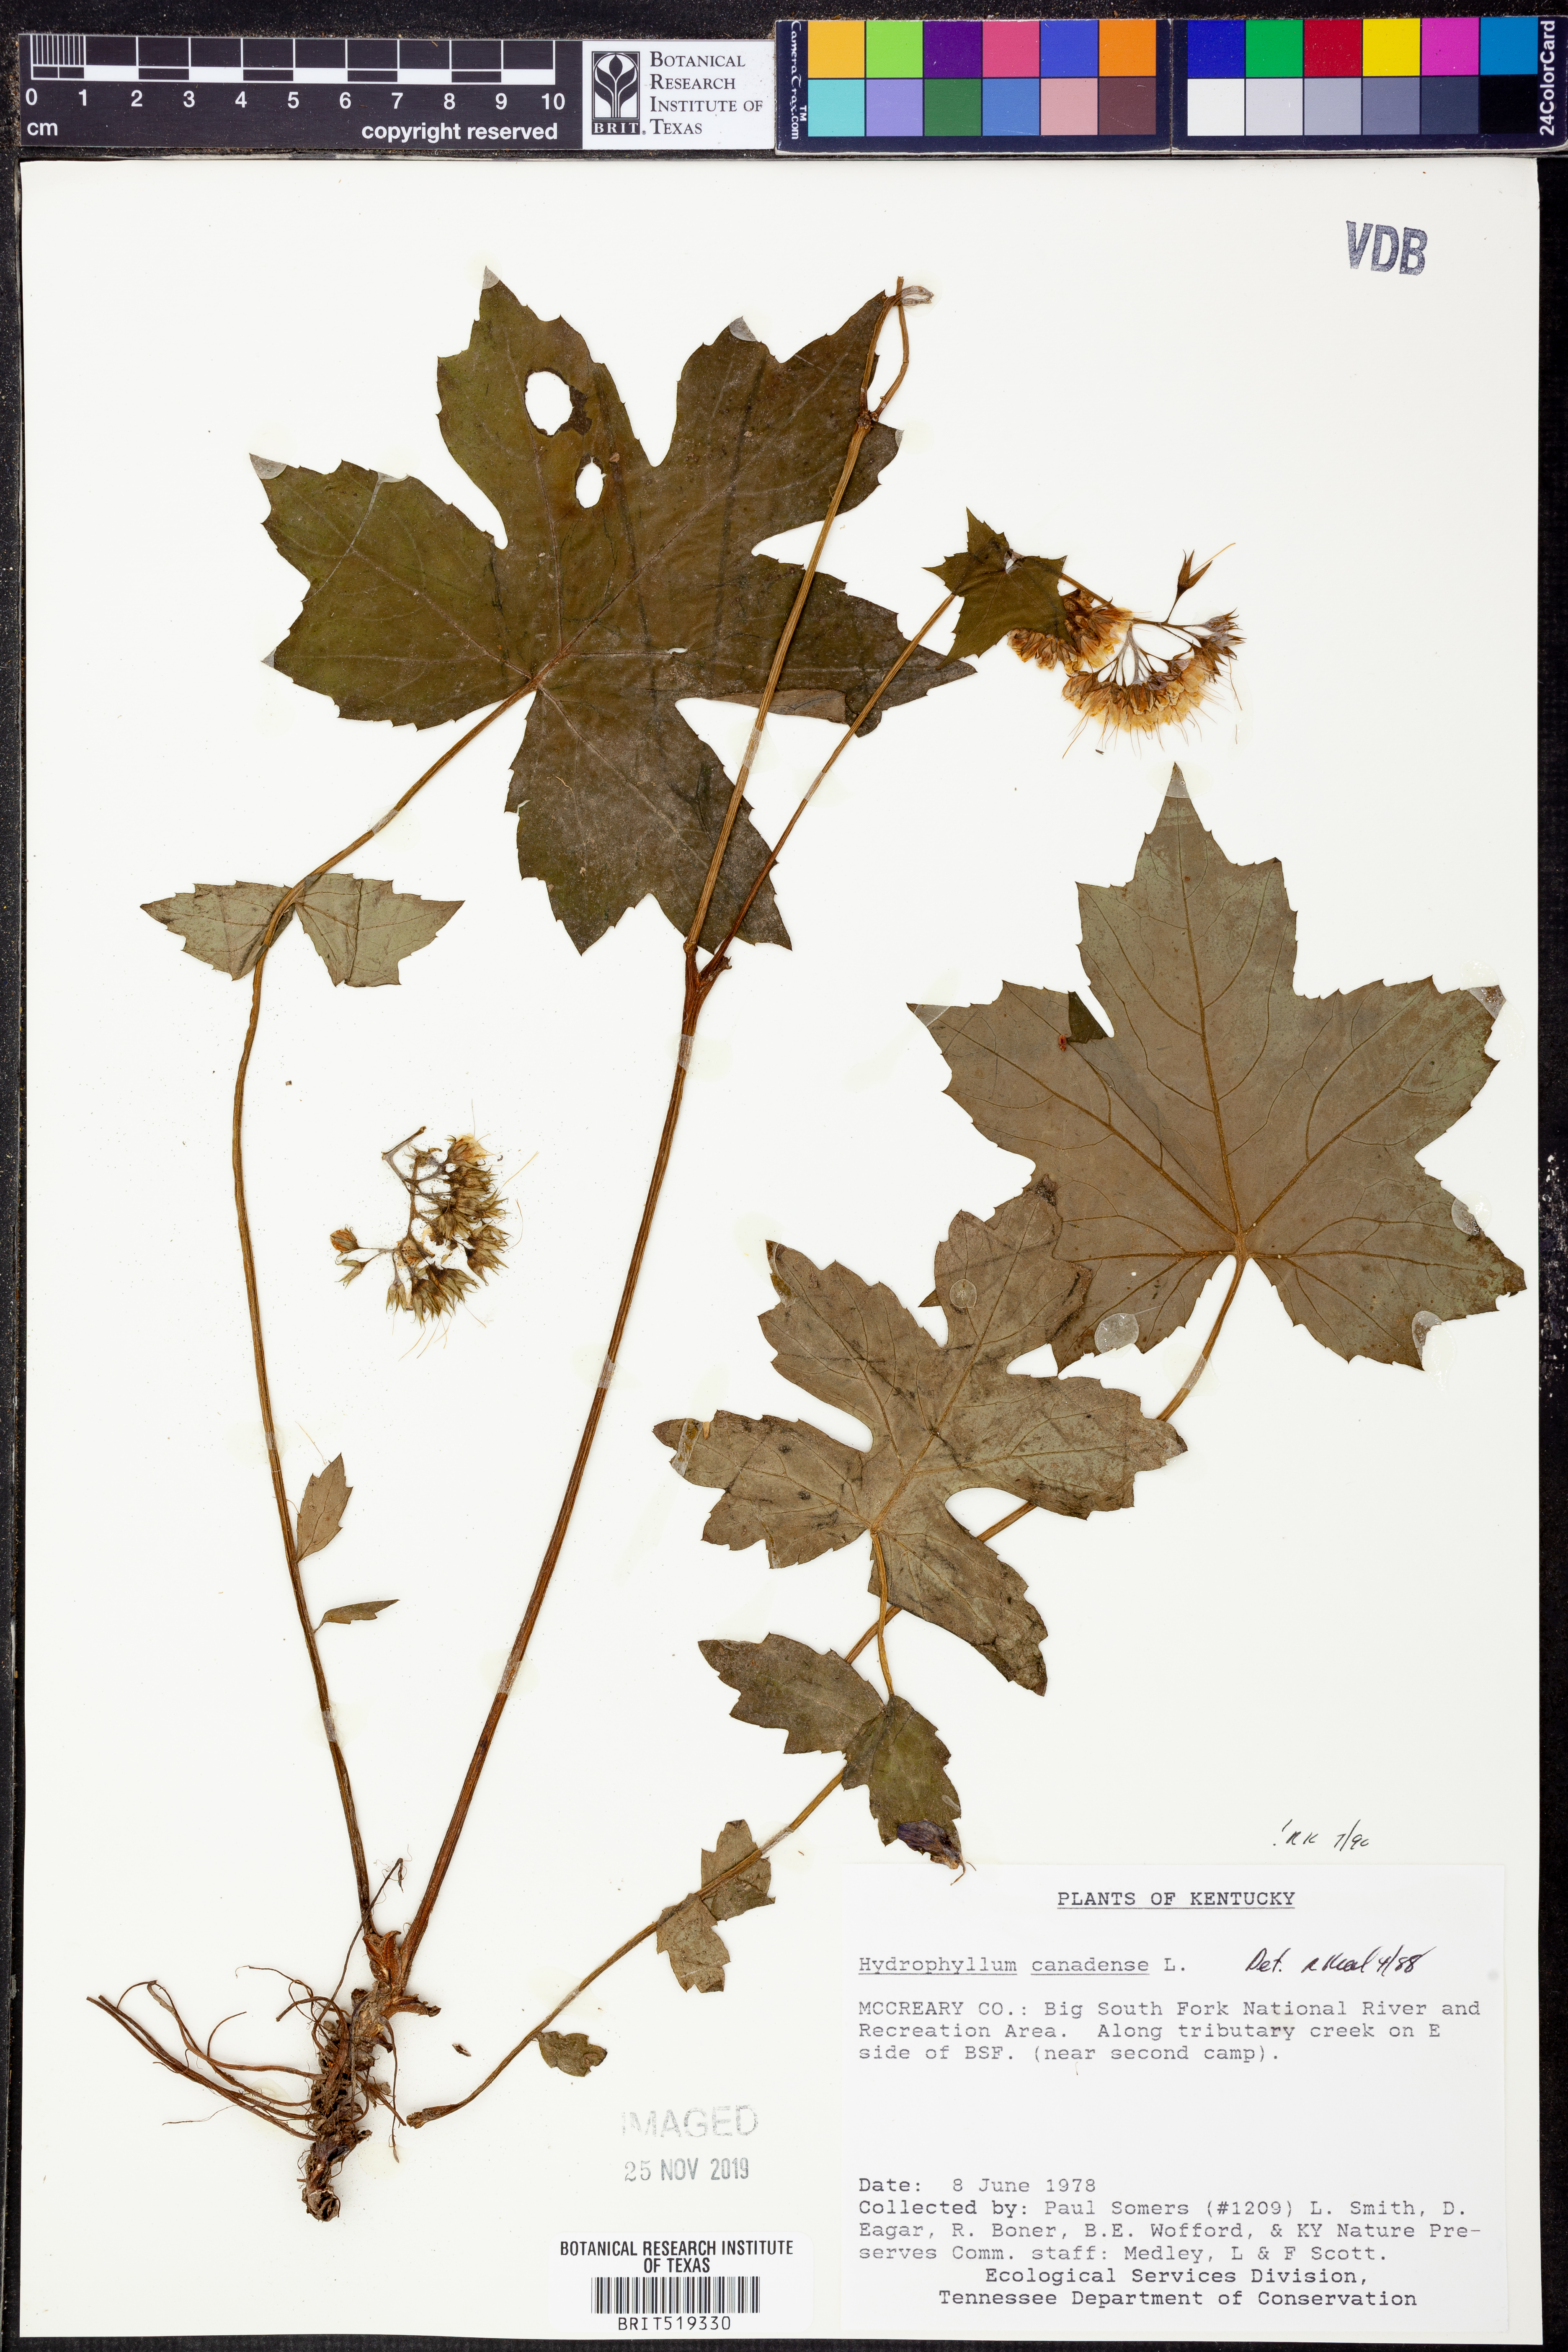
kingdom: Plantae
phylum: Tracheophyta
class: Magnoliopsida
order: Boraginales
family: Hydrophyllaceae
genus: Hydrophyllum
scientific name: Hydrophyllum canadense
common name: Canada waterleaf
